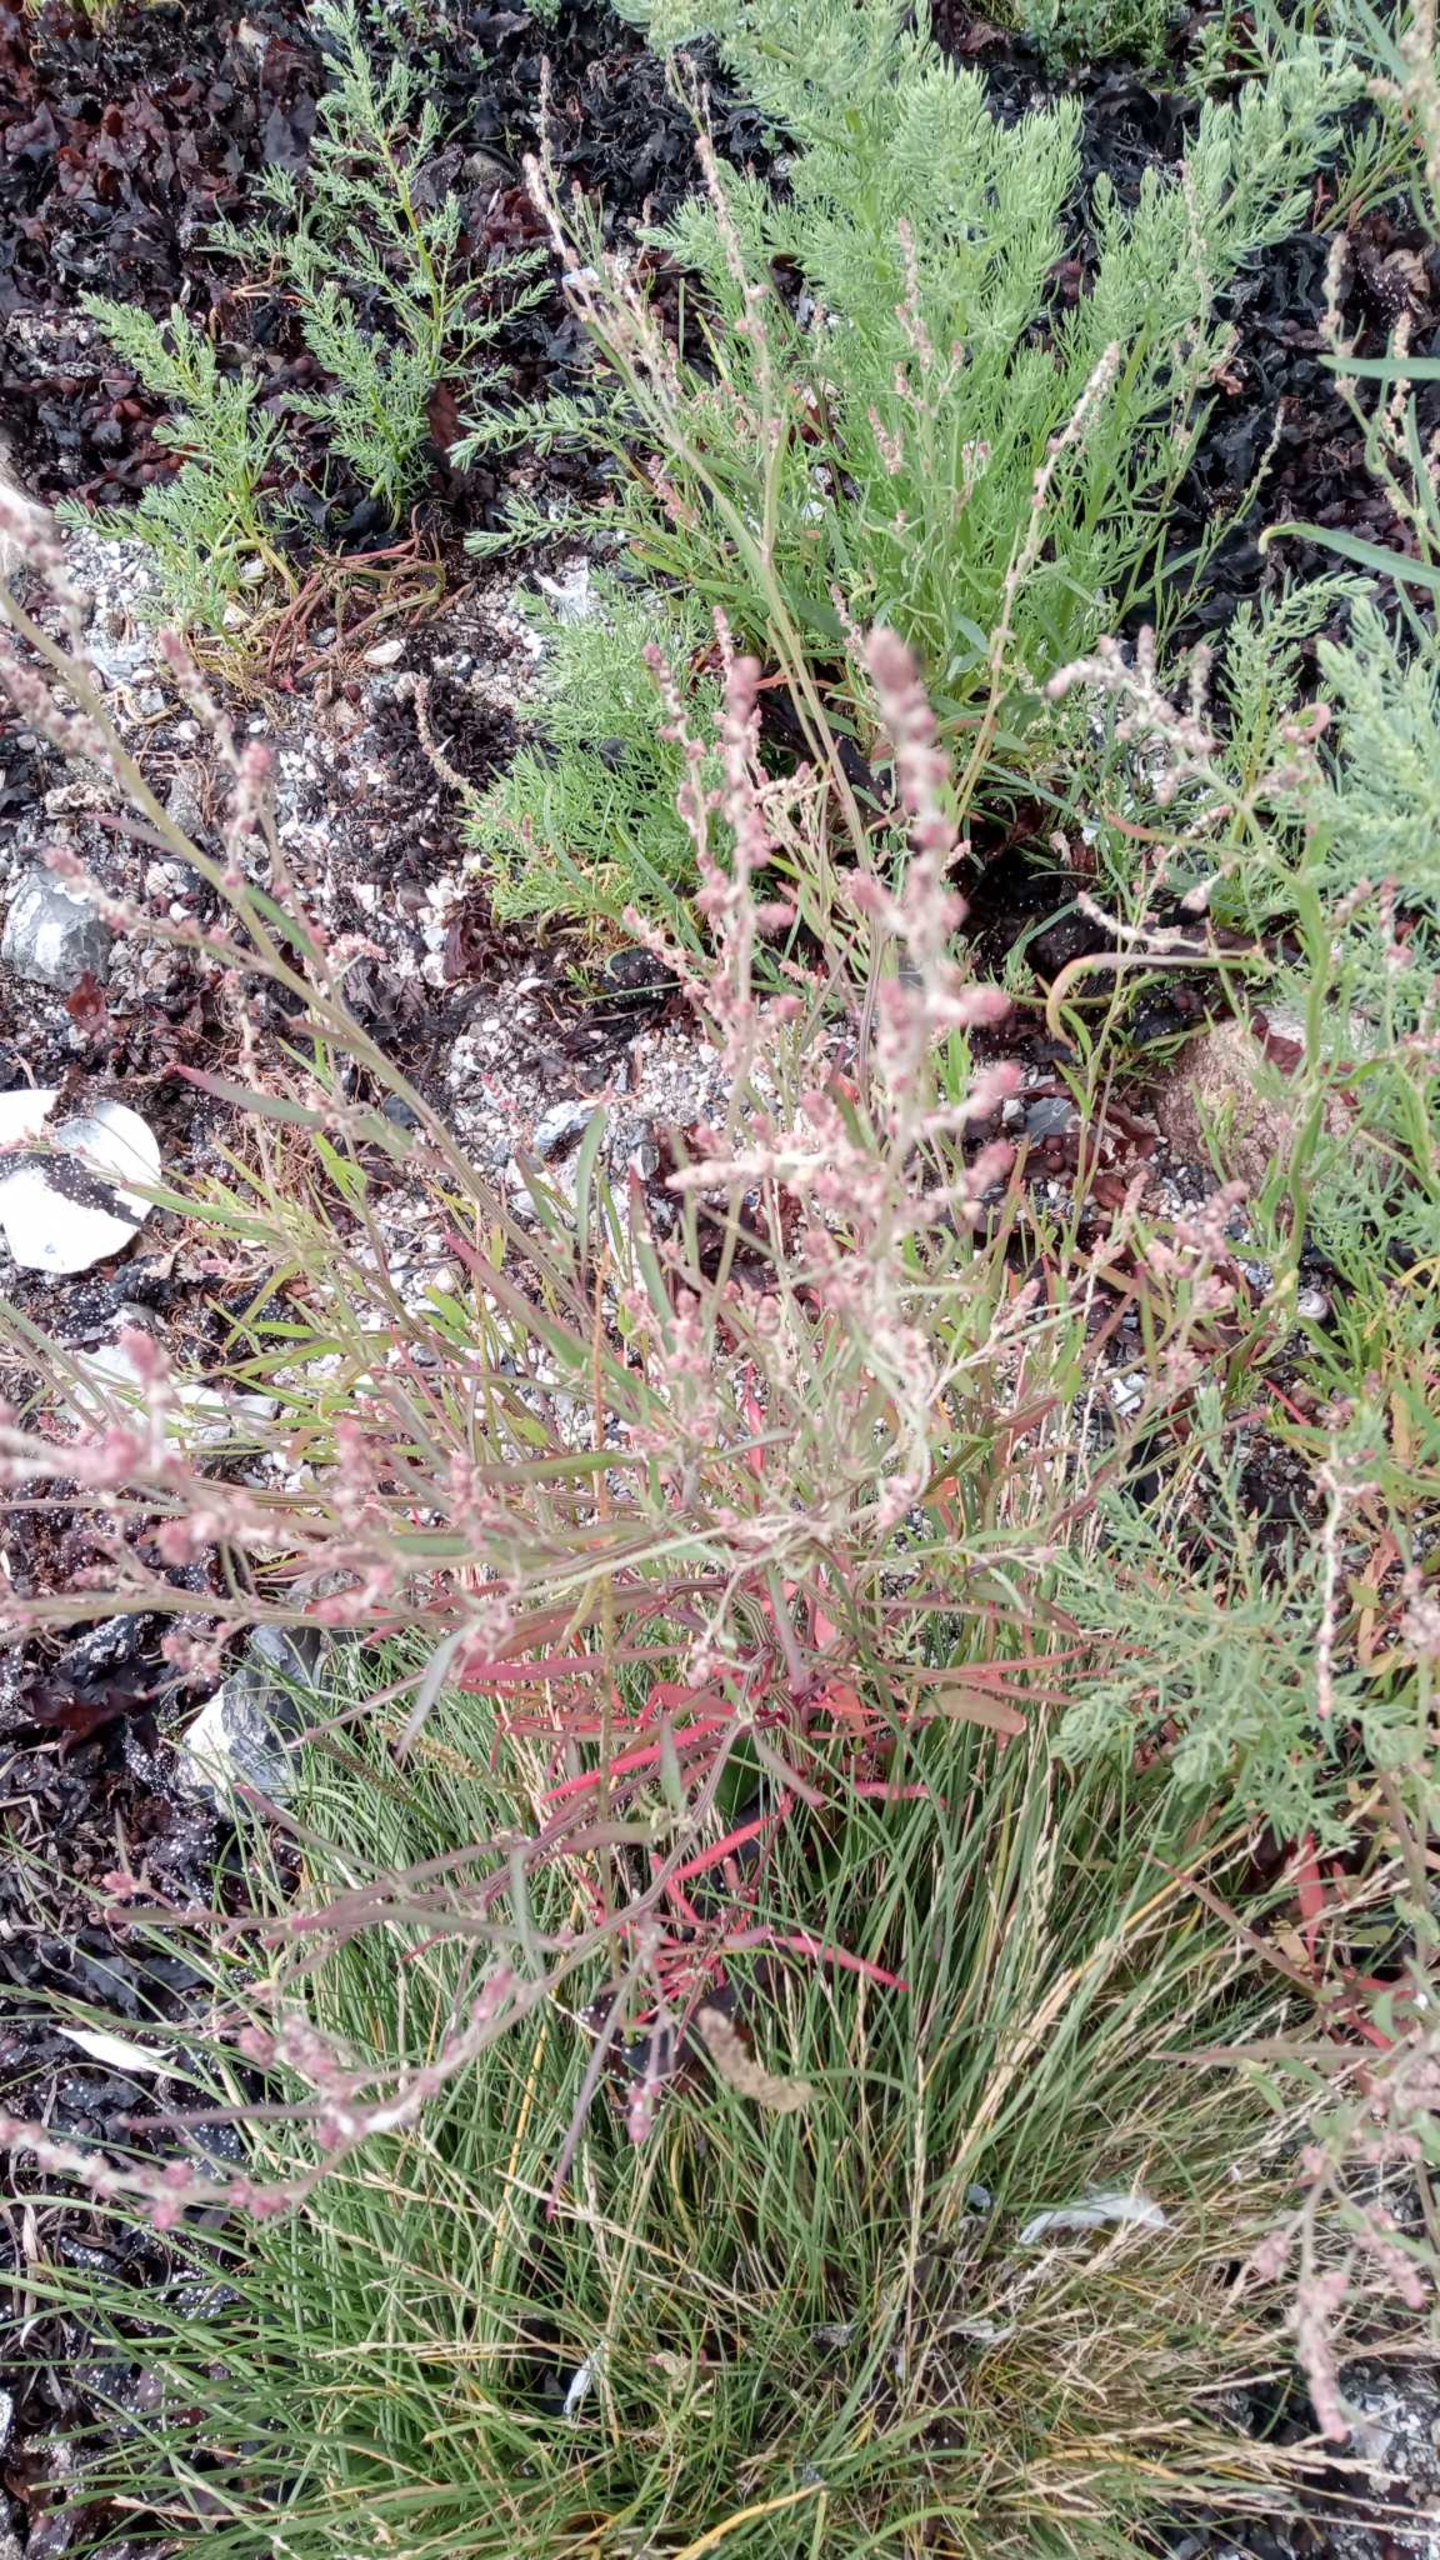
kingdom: Plantae
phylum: Tracheophyta
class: Magnoliopsida
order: Caryophyllales
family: Amaranthaceae
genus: Atriplex
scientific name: Atriplex littoralis
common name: Strand-mælde
